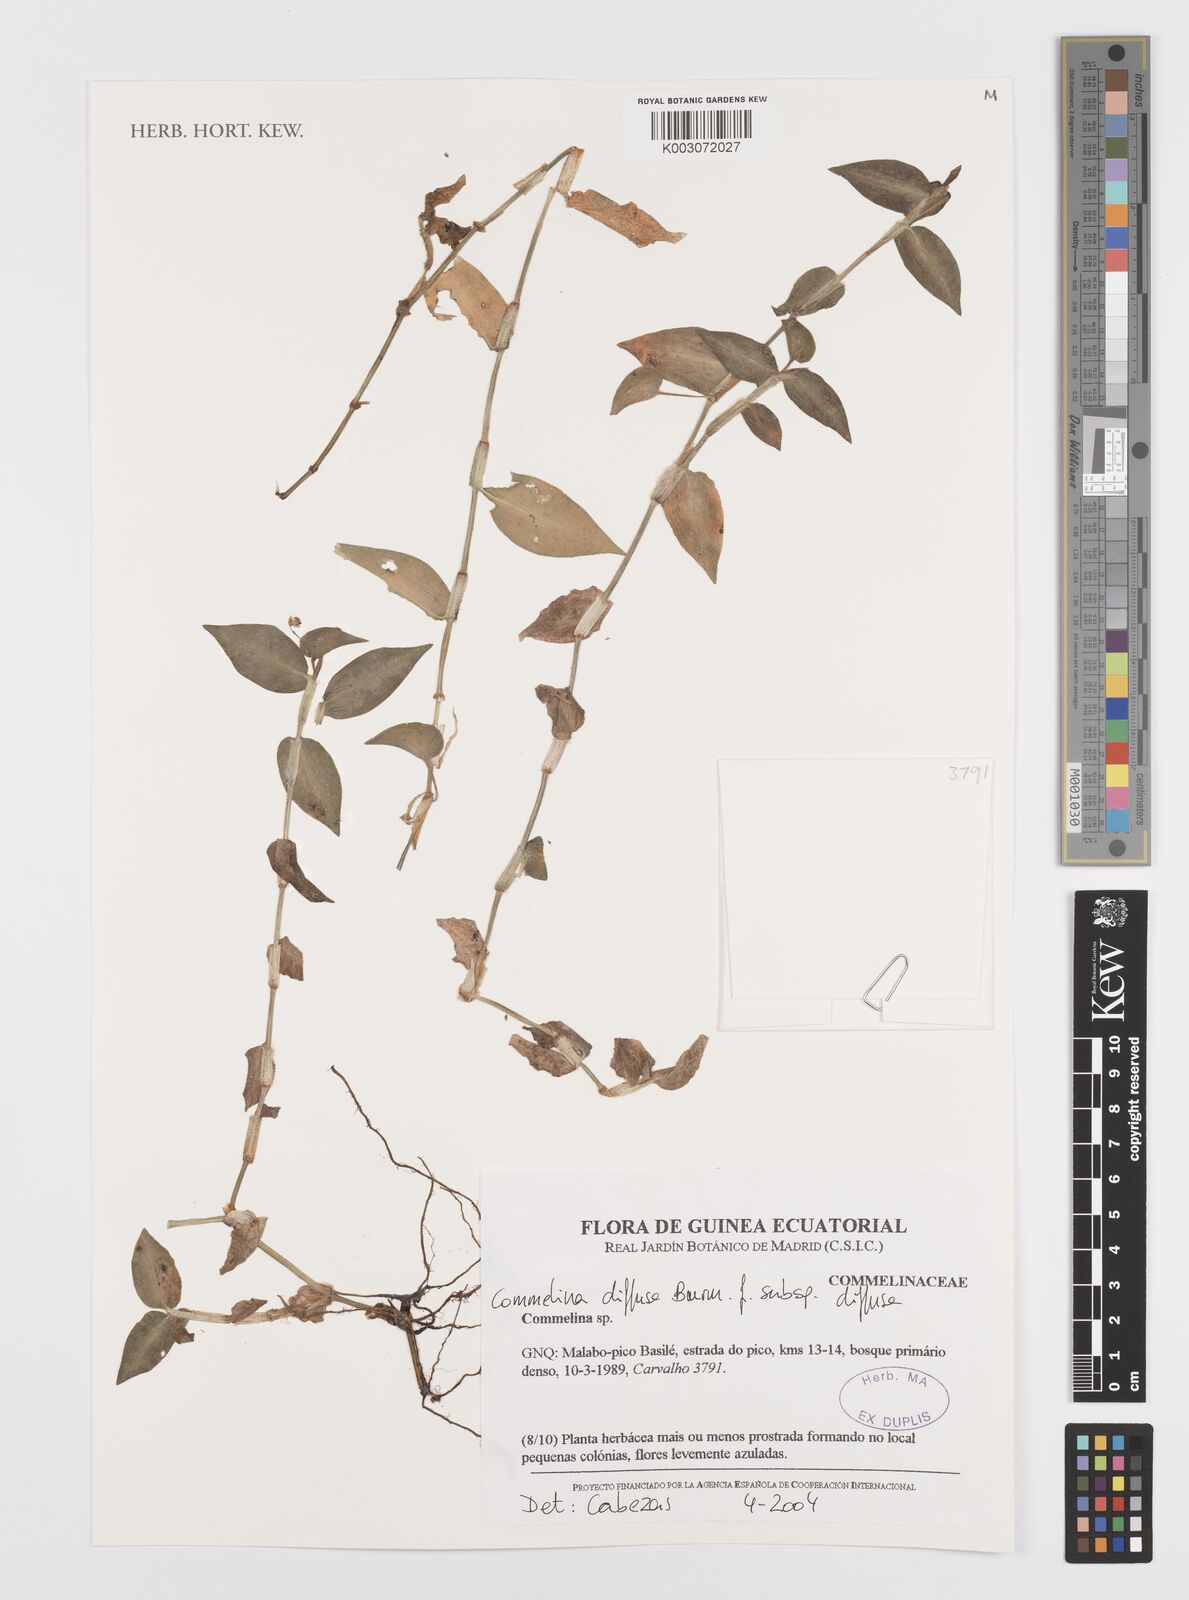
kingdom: Plantae
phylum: Tracheophyta
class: Liliopsida
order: Commelinales
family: Commelinaceae
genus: Commelina
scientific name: Commelina diffusa
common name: Climbing dayflower
